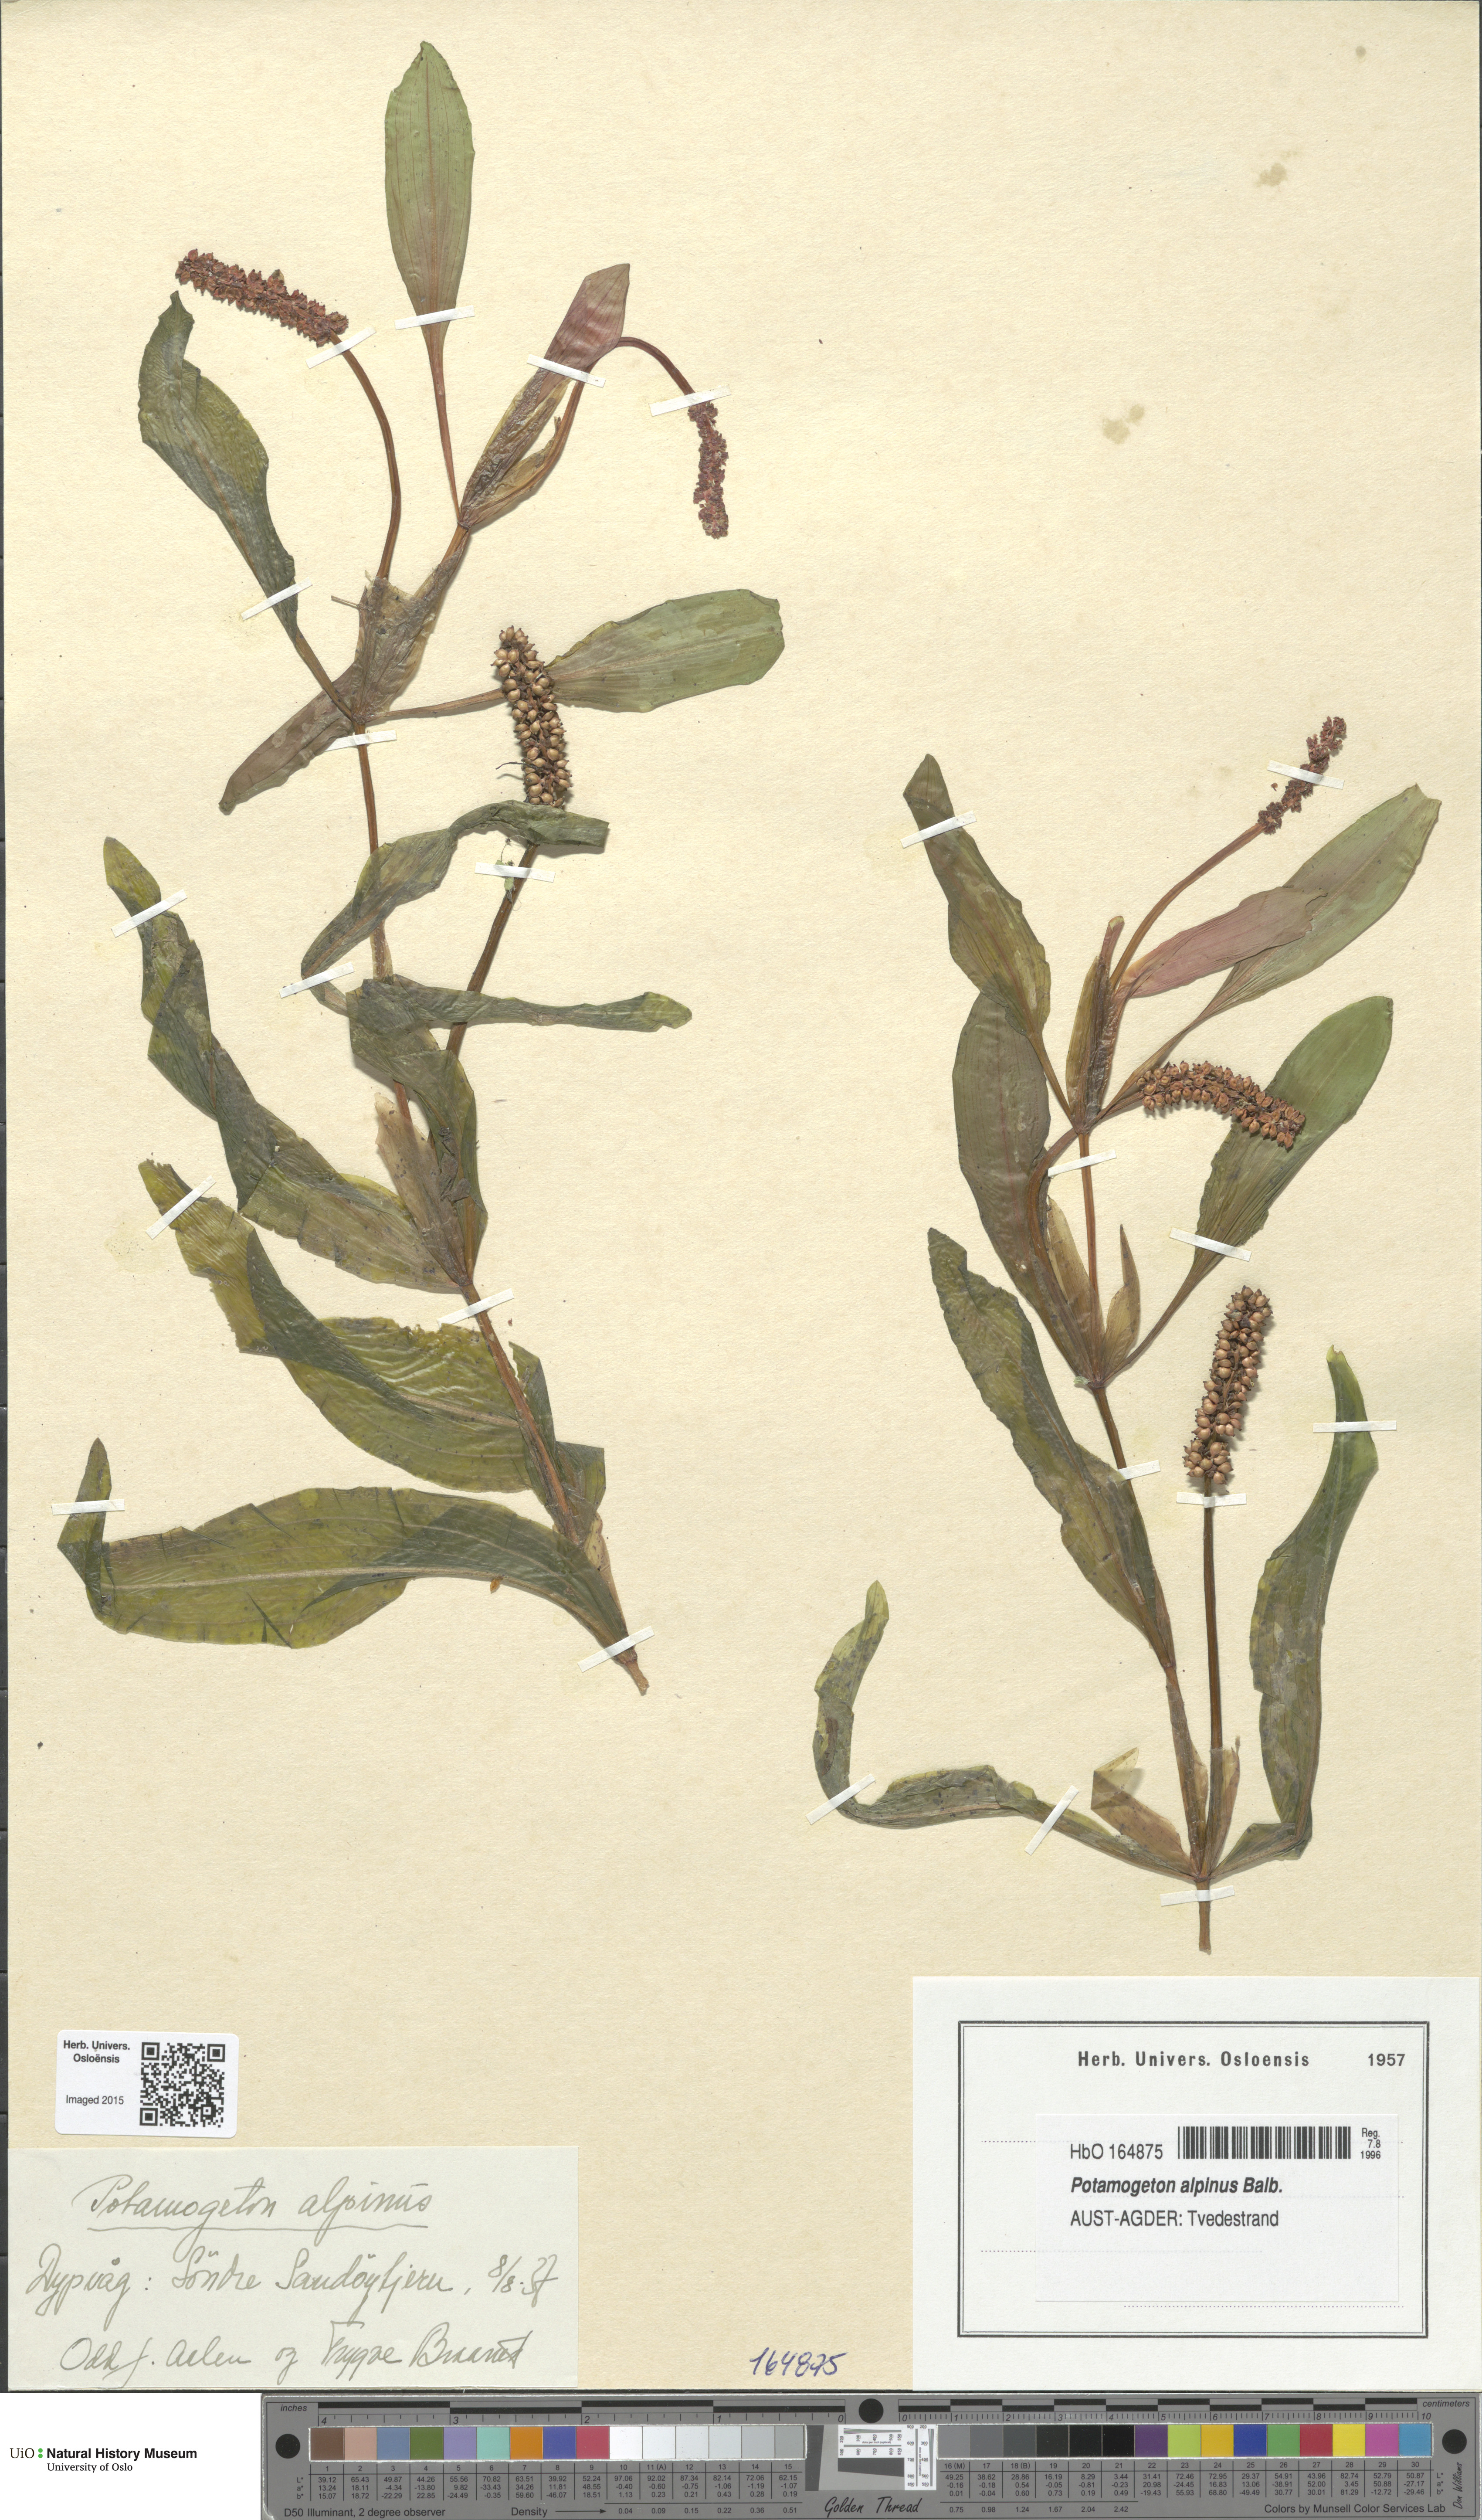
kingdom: Plantae
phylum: Tracheophyta
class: Liliopsida
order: Alismatales
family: Potamogetonaceae
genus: Potamogeton
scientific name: Potamogeton alpinus
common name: Red pondweed
